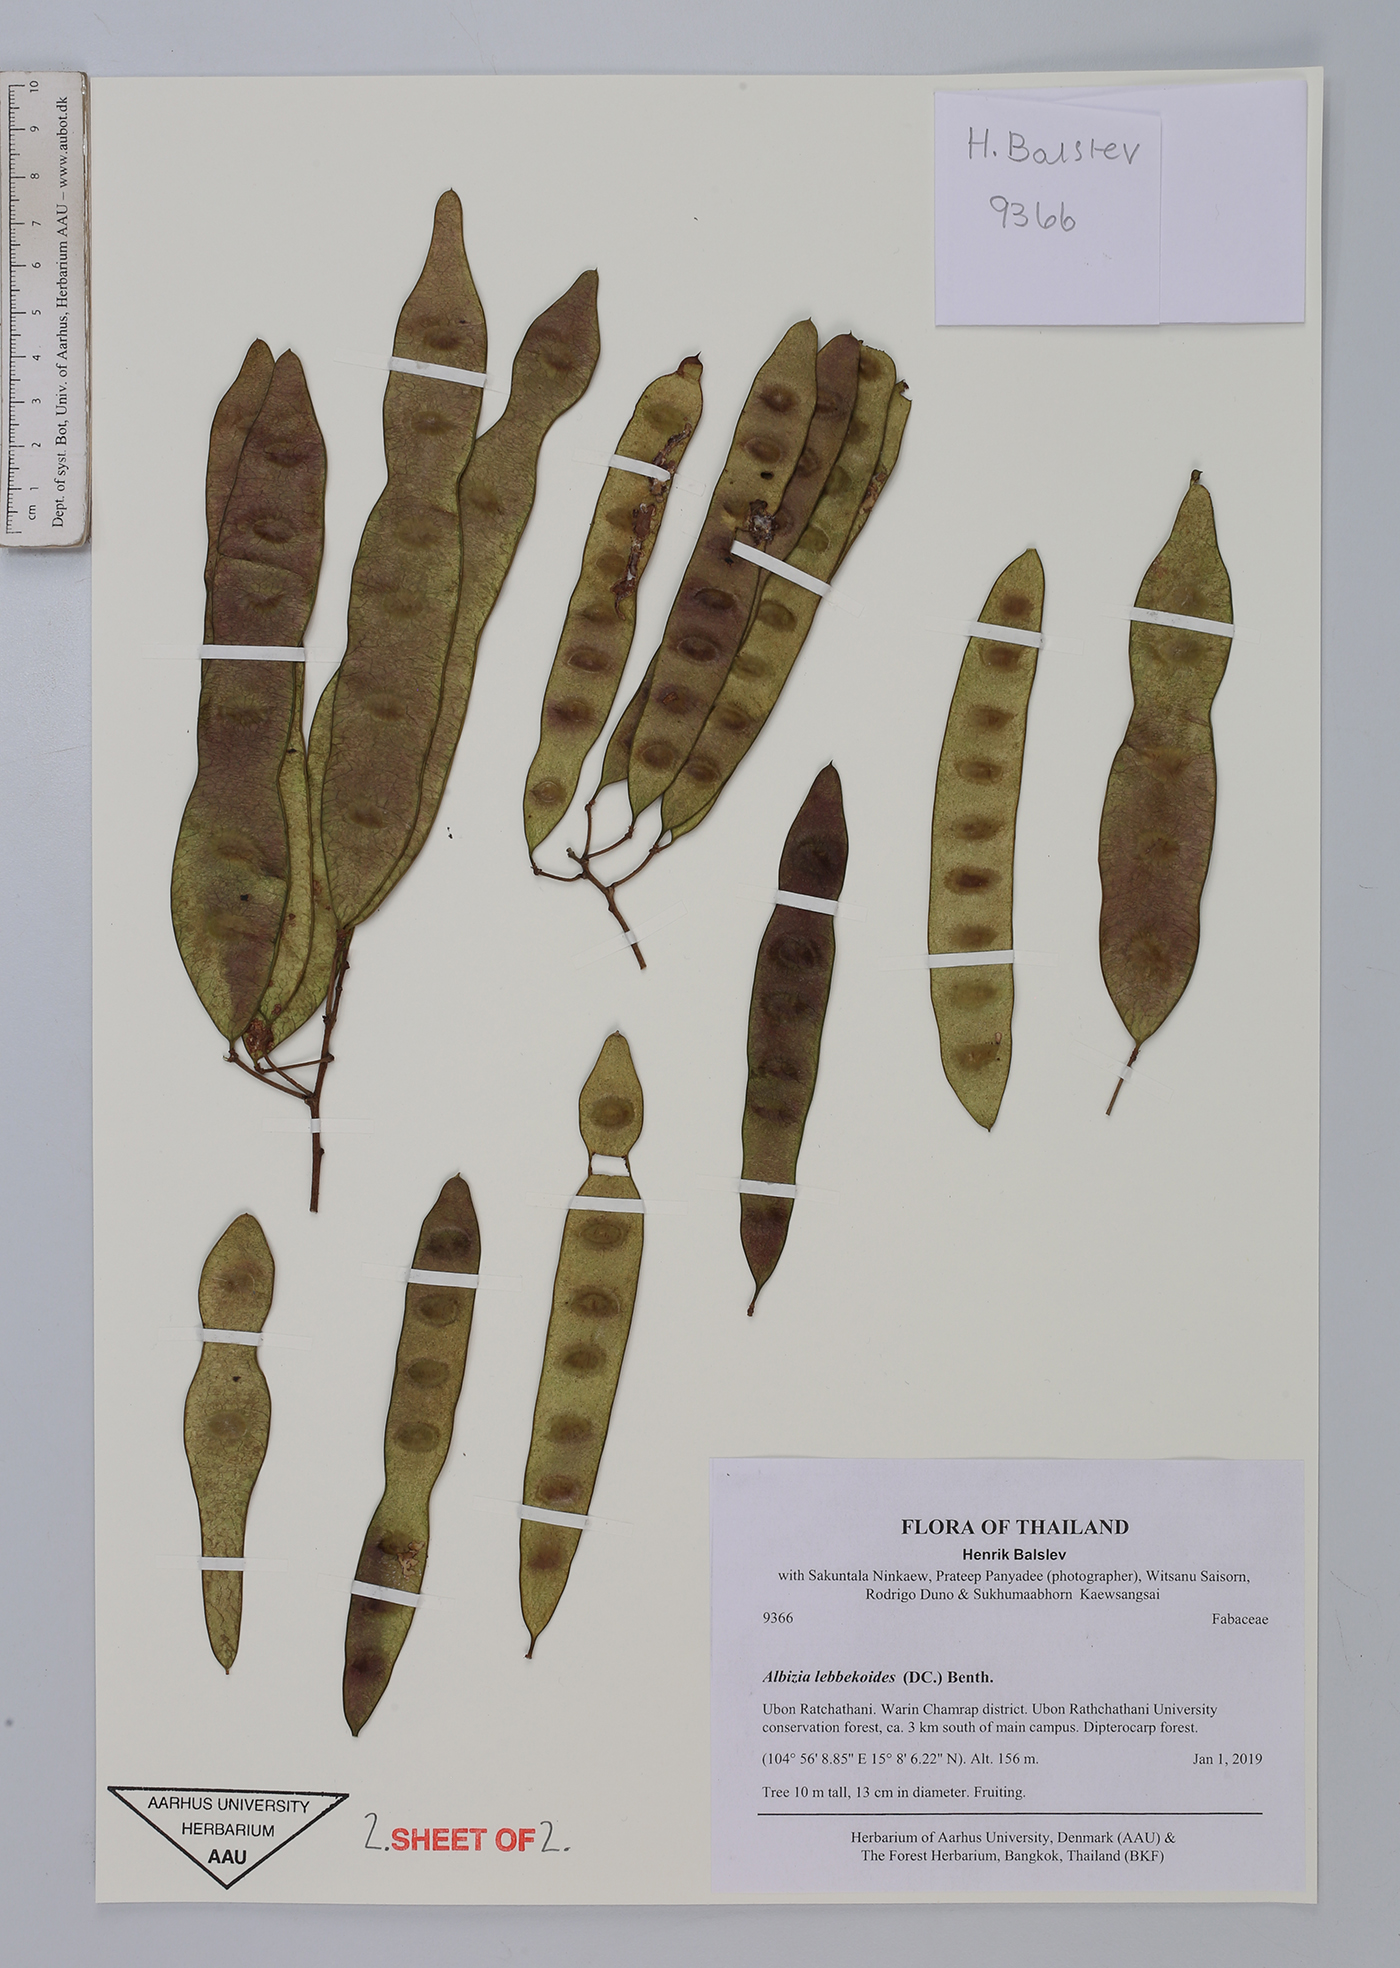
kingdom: Plantae
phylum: Tracheophyta
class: Magnoliopsida
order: Fabales
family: Fabaceae
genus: Albizia
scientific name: Albizia lebbekoides
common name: Indian albizia
